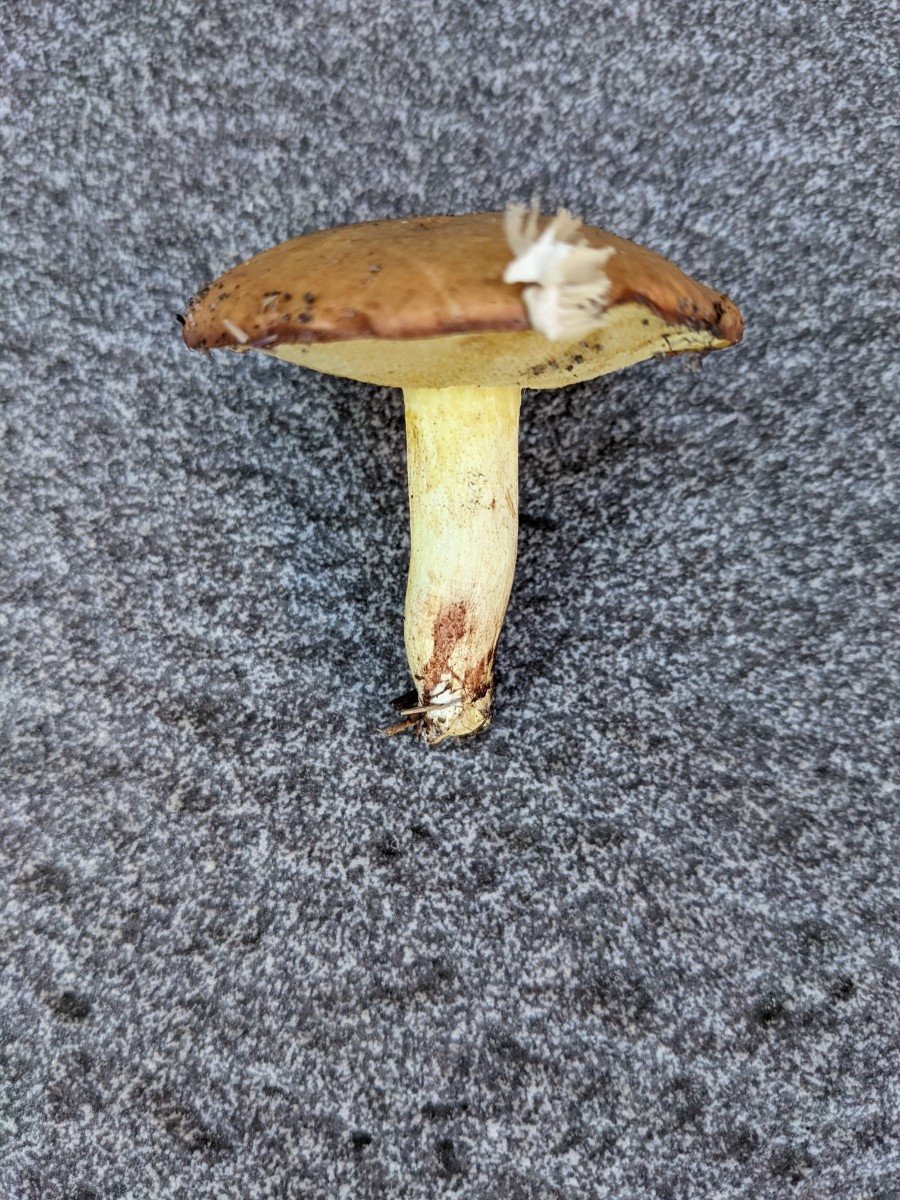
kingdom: Fungi
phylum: Basidiomycota
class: Agaricomycetes
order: Boletales
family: Suillaceae
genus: Suillus
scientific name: Suillus granulatus
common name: kornet slimrørhat
